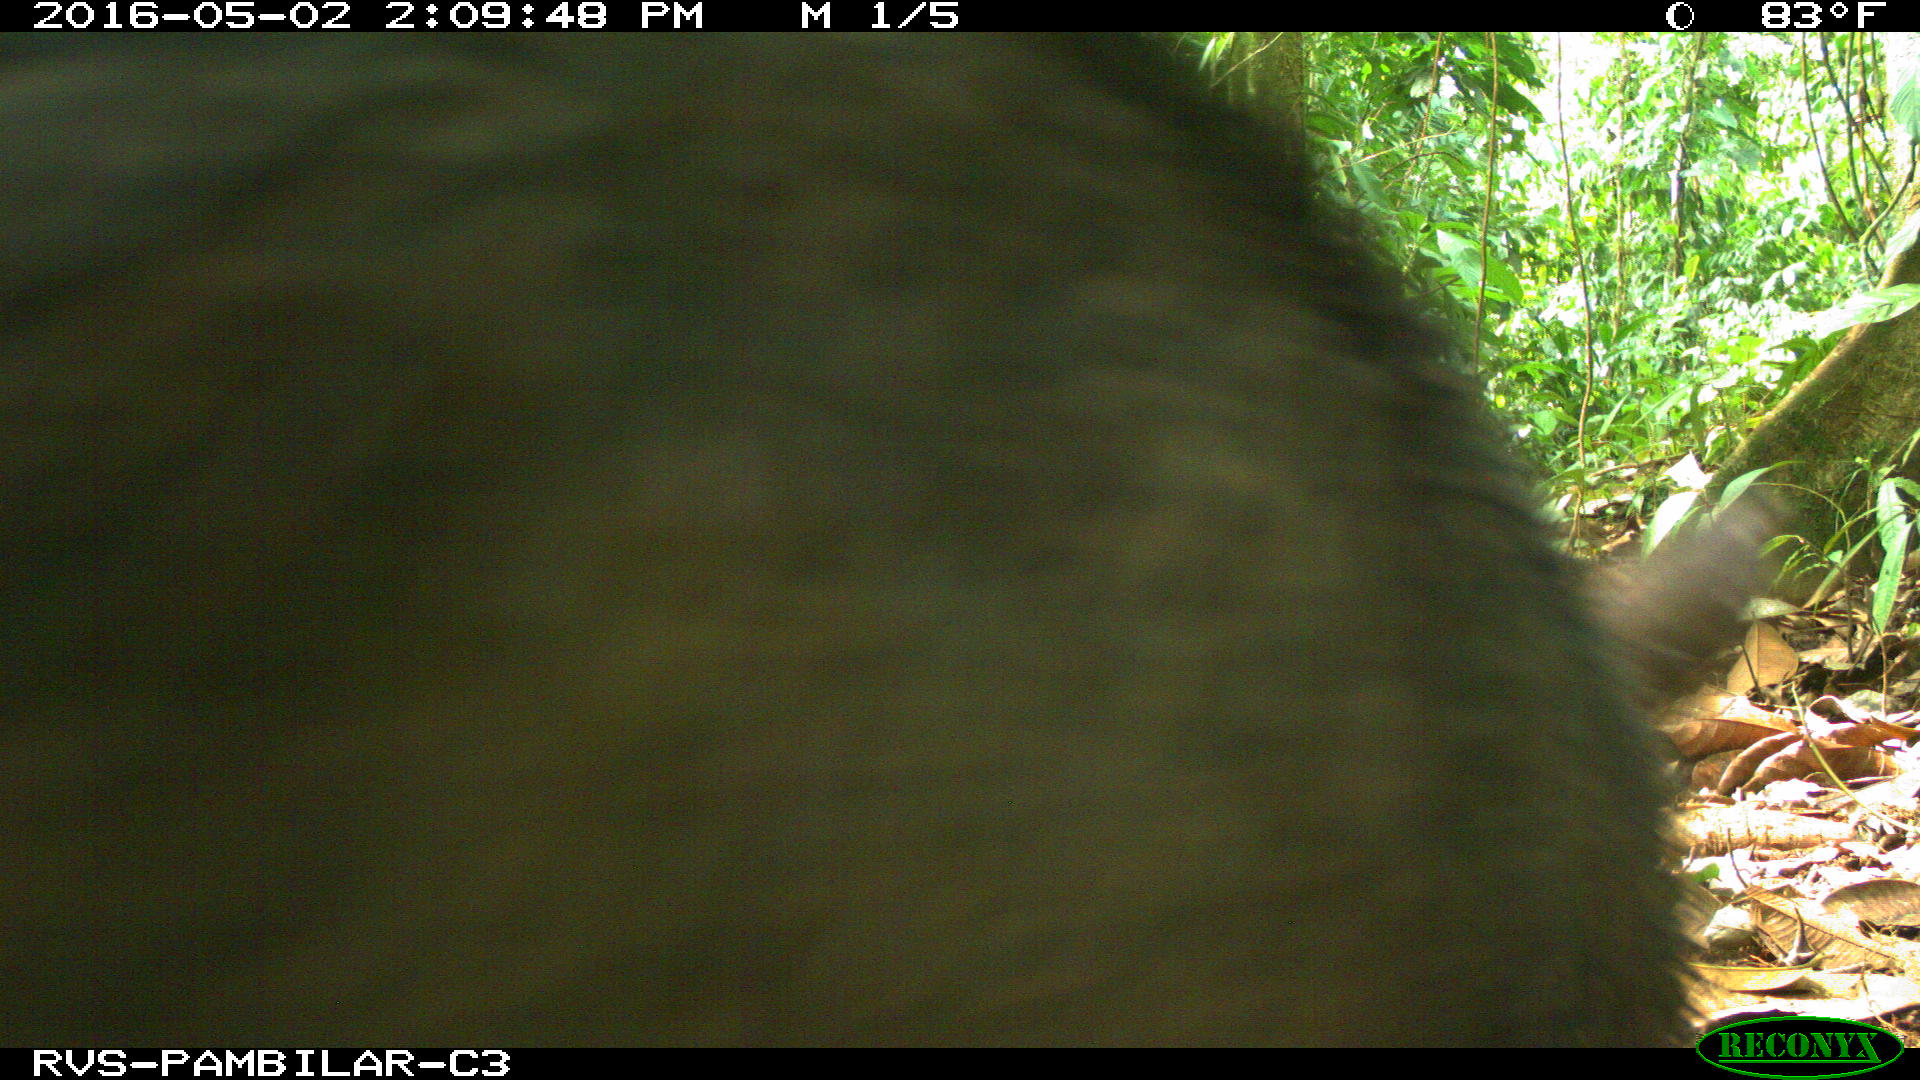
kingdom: Animalia
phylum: Chordata
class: Mammalia
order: Artiodactyla
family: Tayassuidae
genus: Tayassu
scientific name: Tayassu pecari
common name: White-lipped peccary
